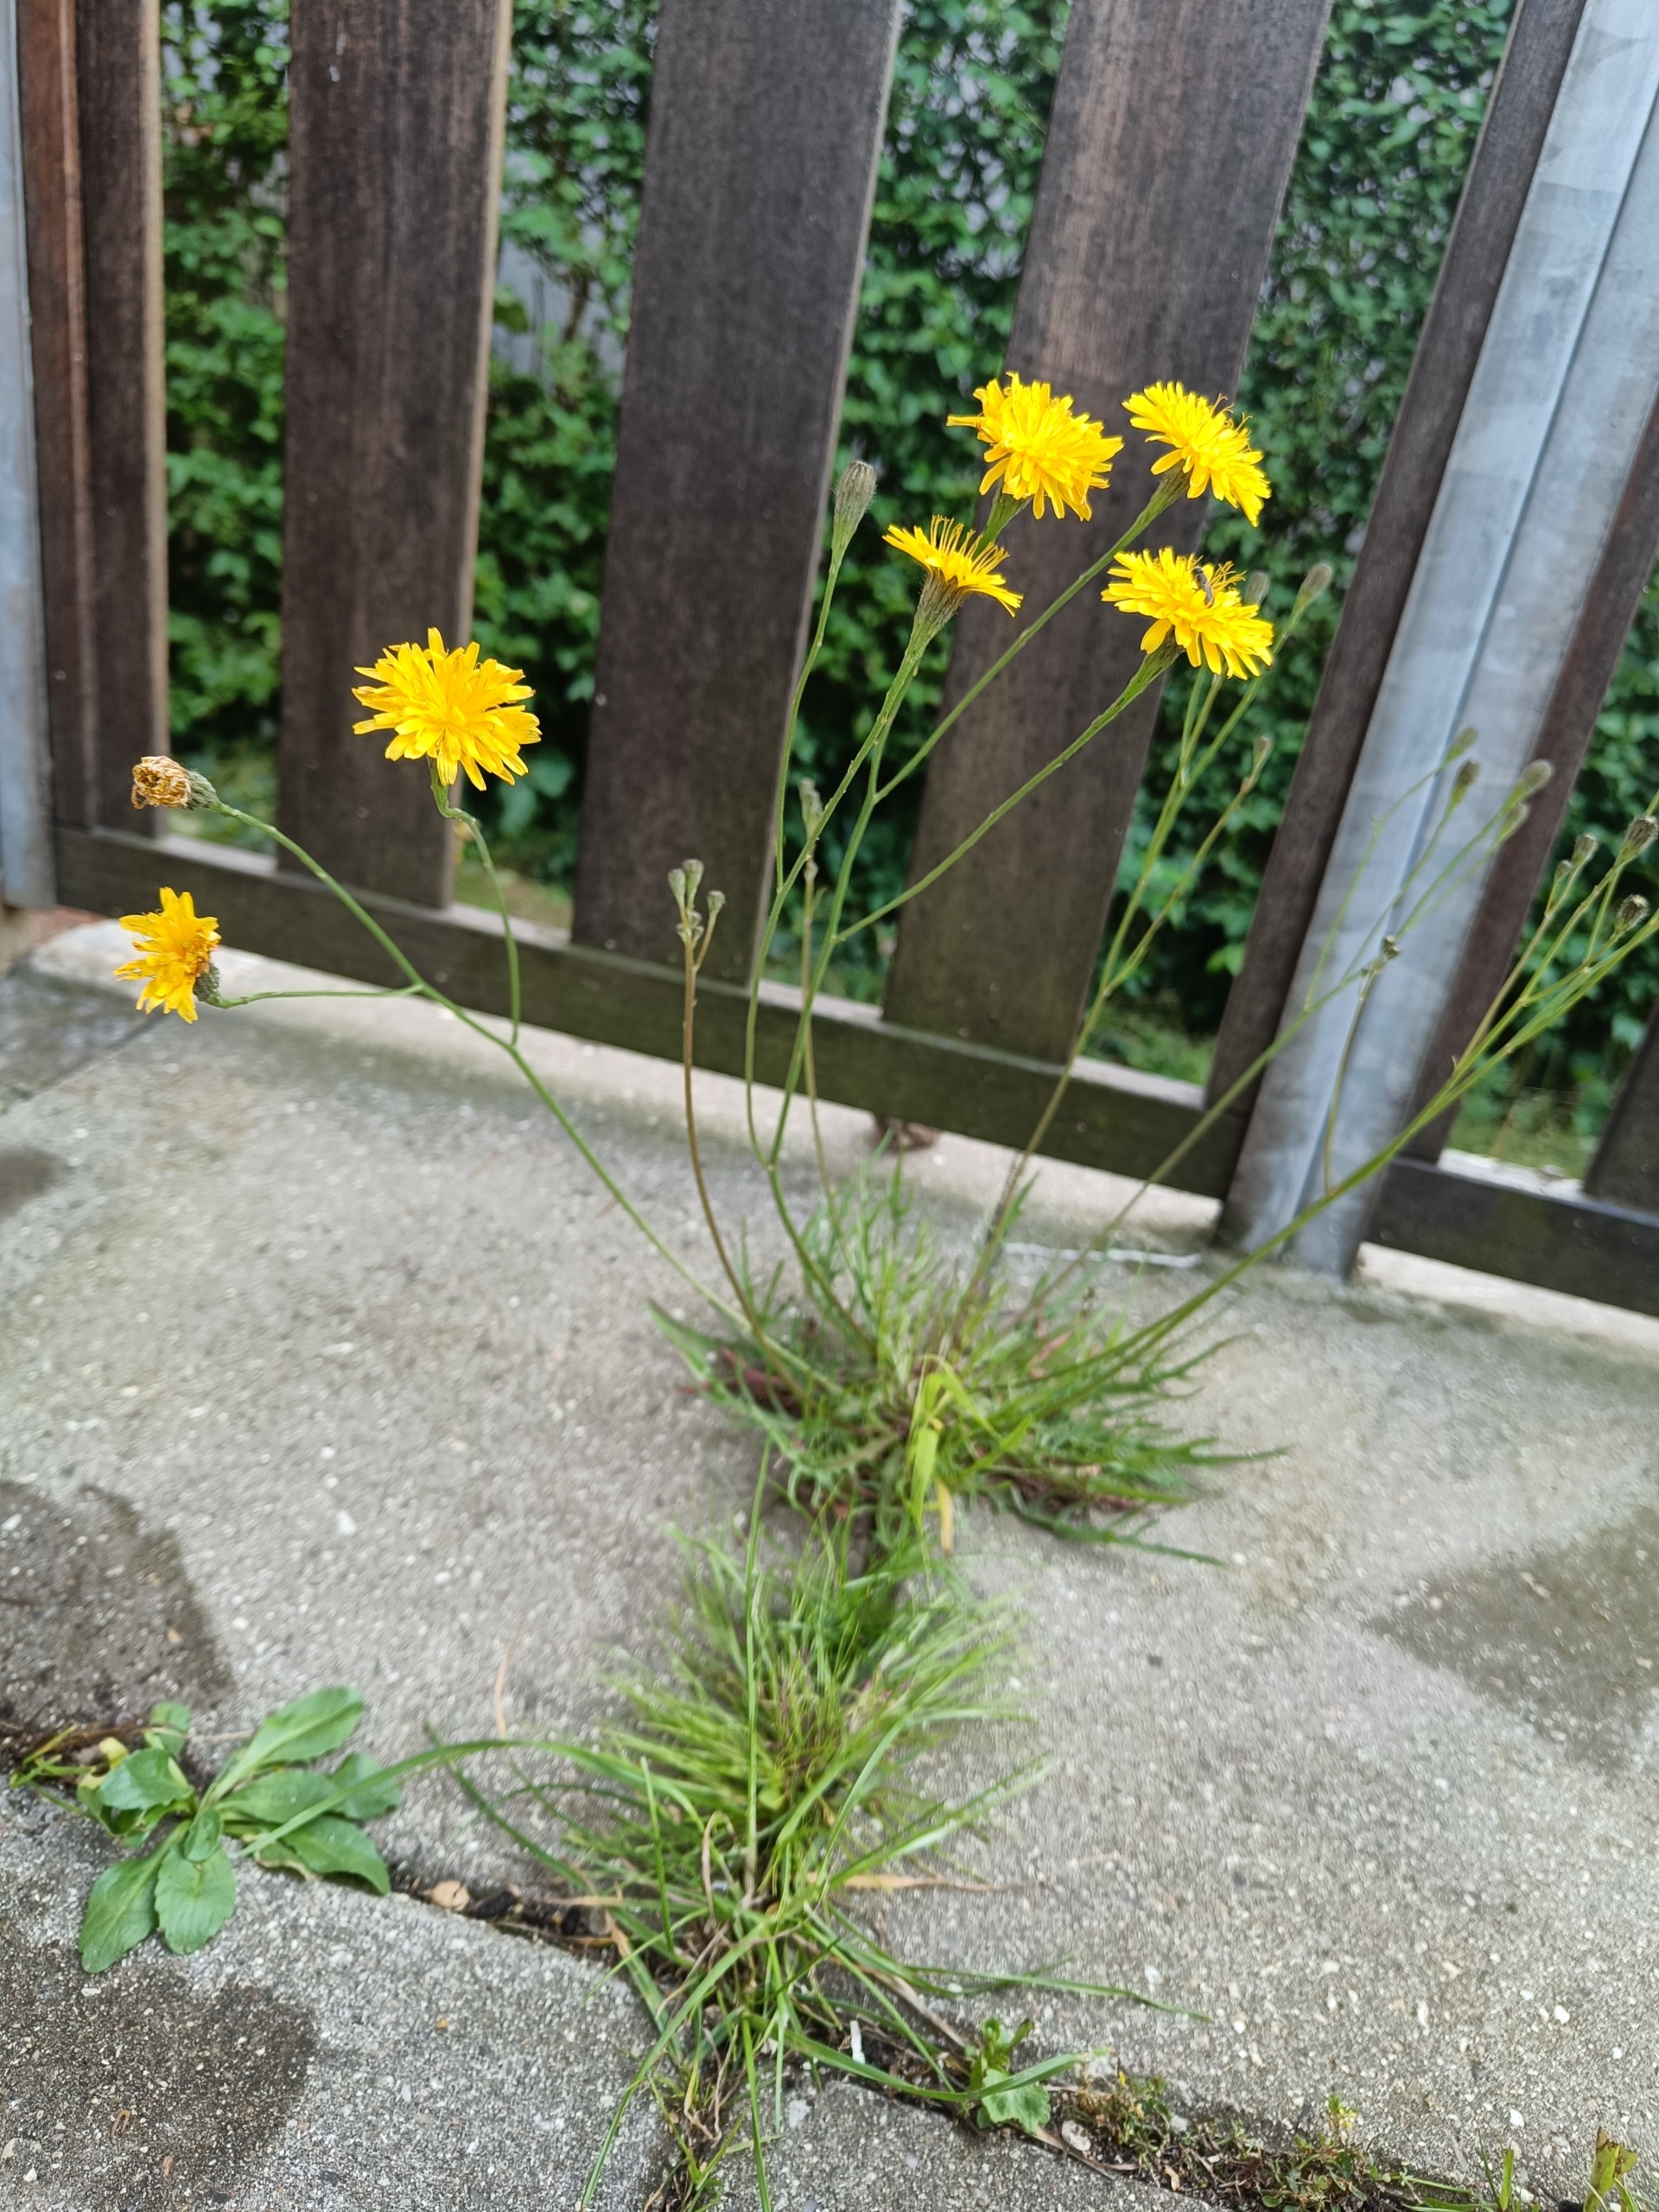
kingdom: Plantae
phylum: Tracheophyta
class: Magnoliopsida
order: Asterales
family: Asteraceae
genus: Scorzoneroides
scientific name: Scorzoneroides autumnalis
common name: Høst-borst
